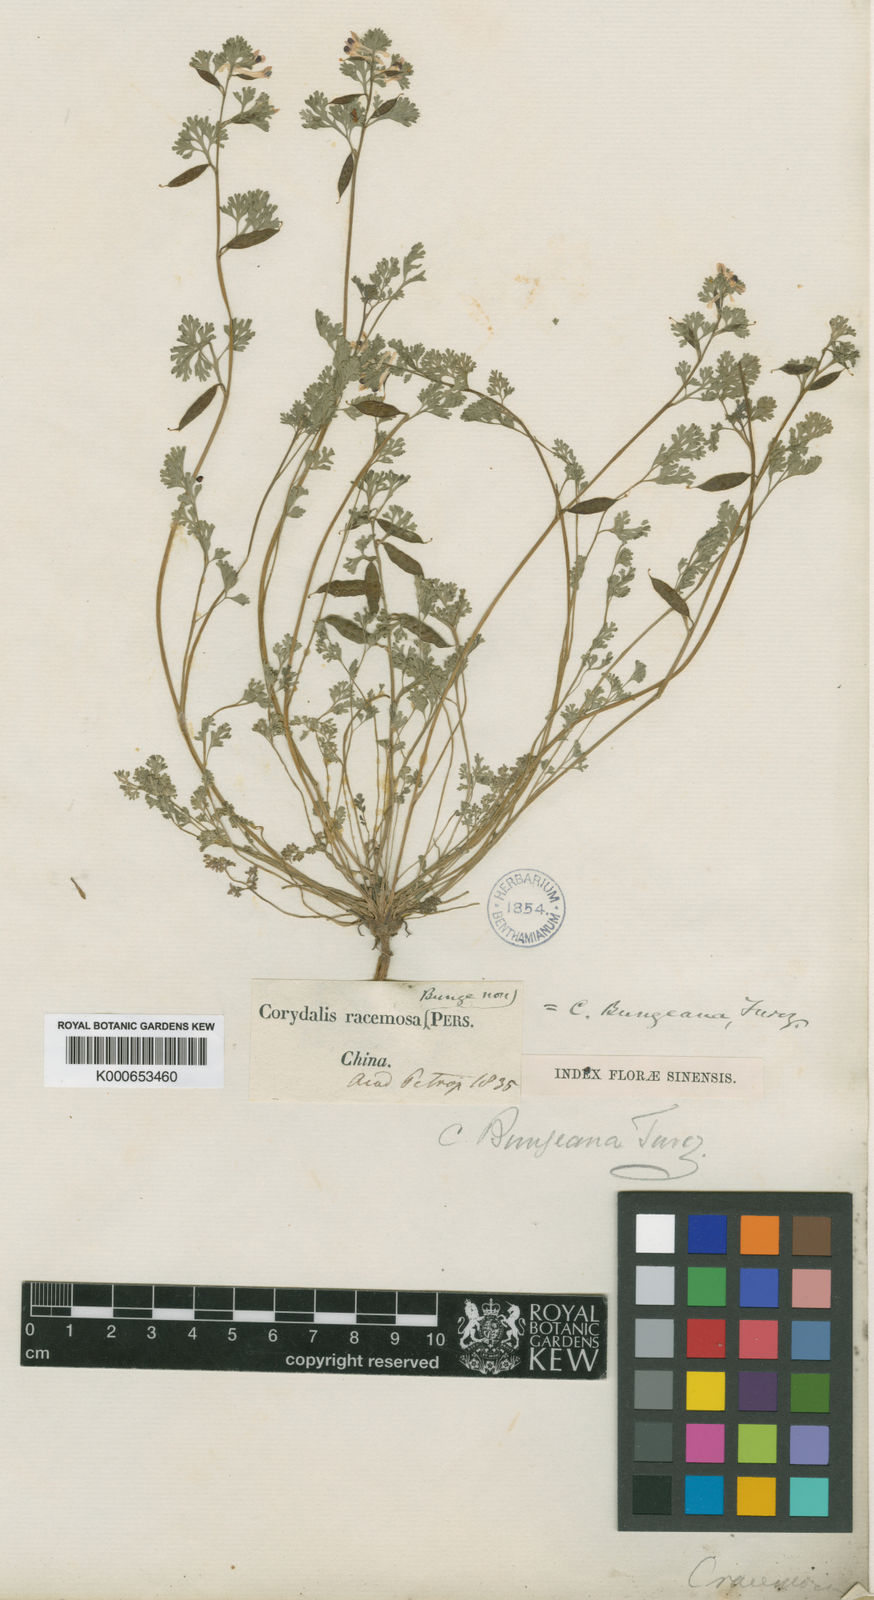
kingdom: Plantae
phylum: Tracheophyta
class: Magnoliopsida
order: Ranunculales
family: Papaveraceae
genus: Corydalis
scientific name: Corydalis bungeana
